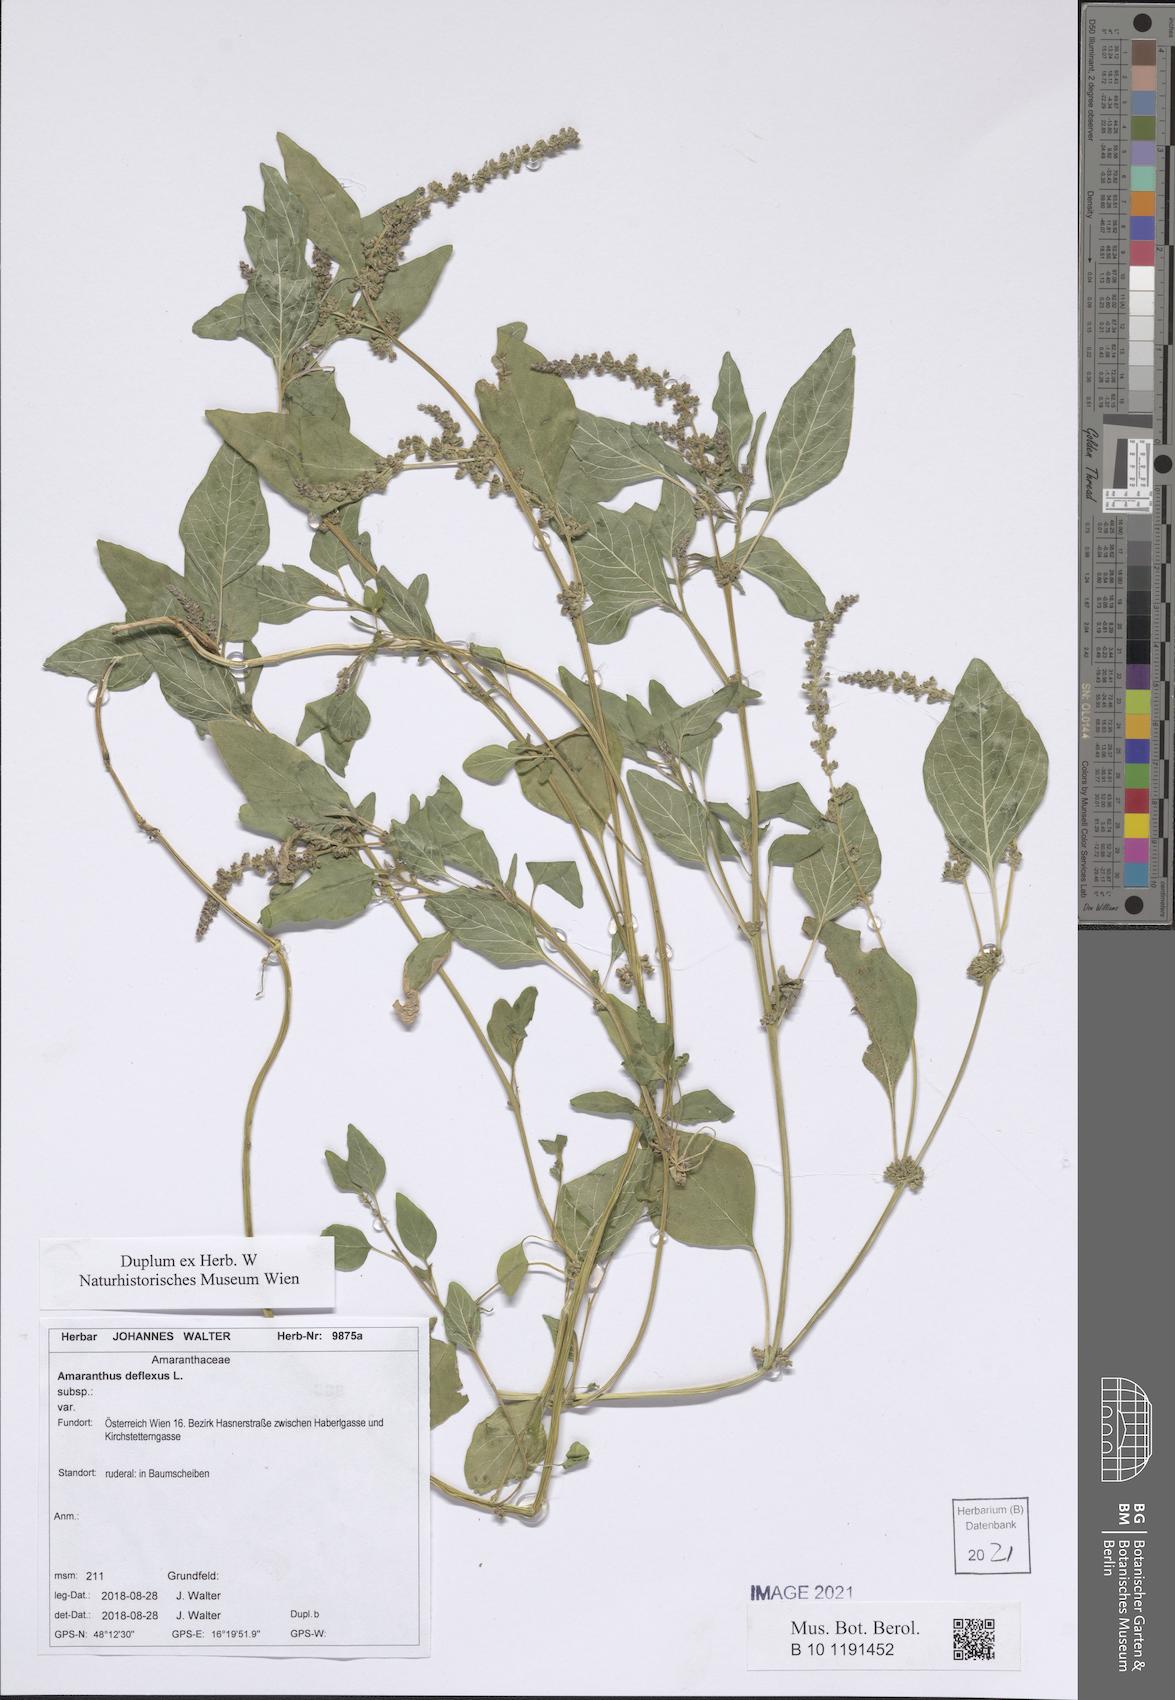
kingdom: Plantae
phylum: Tracheophyta
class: Magnoliopsida
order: Caryophyllales
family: Amaranthaceae
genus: Amaranthus
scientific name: Amaranthus deflexus
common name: Perennial pigweed
